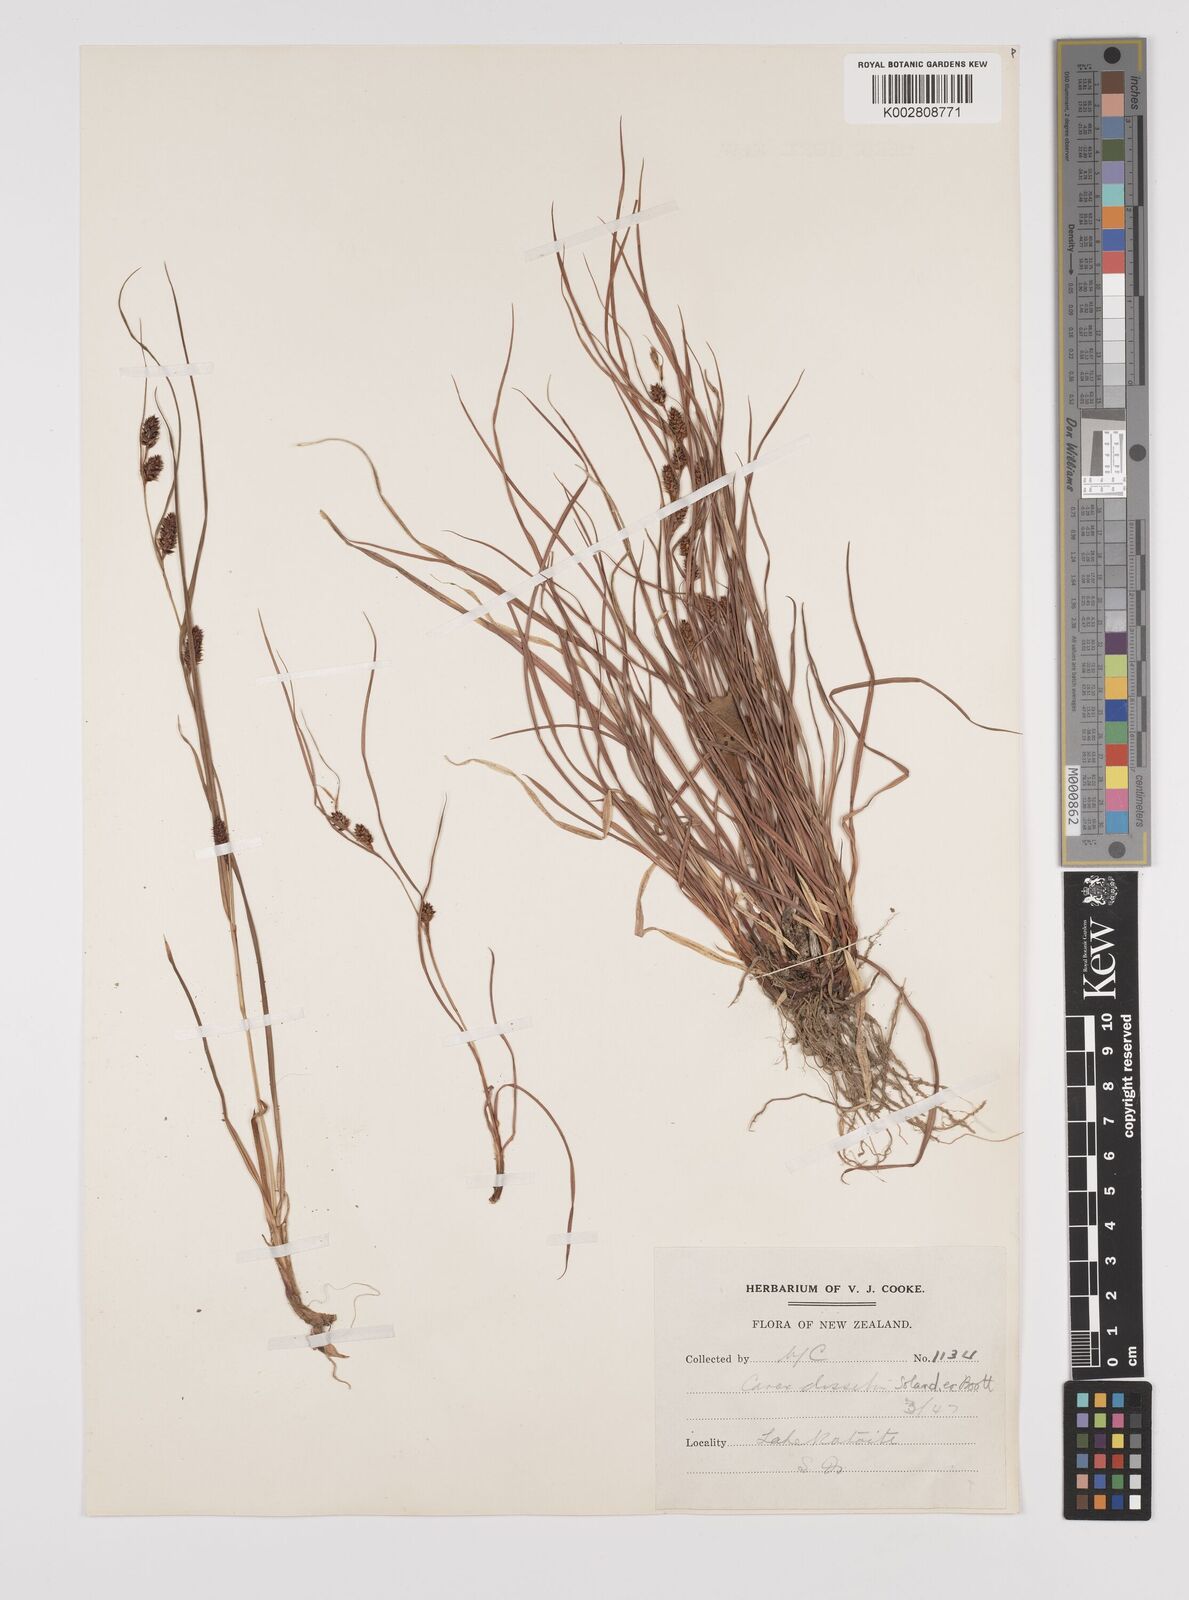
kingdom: Plantae
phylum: Tracheophyta
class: Liliopsida
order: Poales
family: Cyperaceae
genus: Carex
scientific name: Carex dissita
